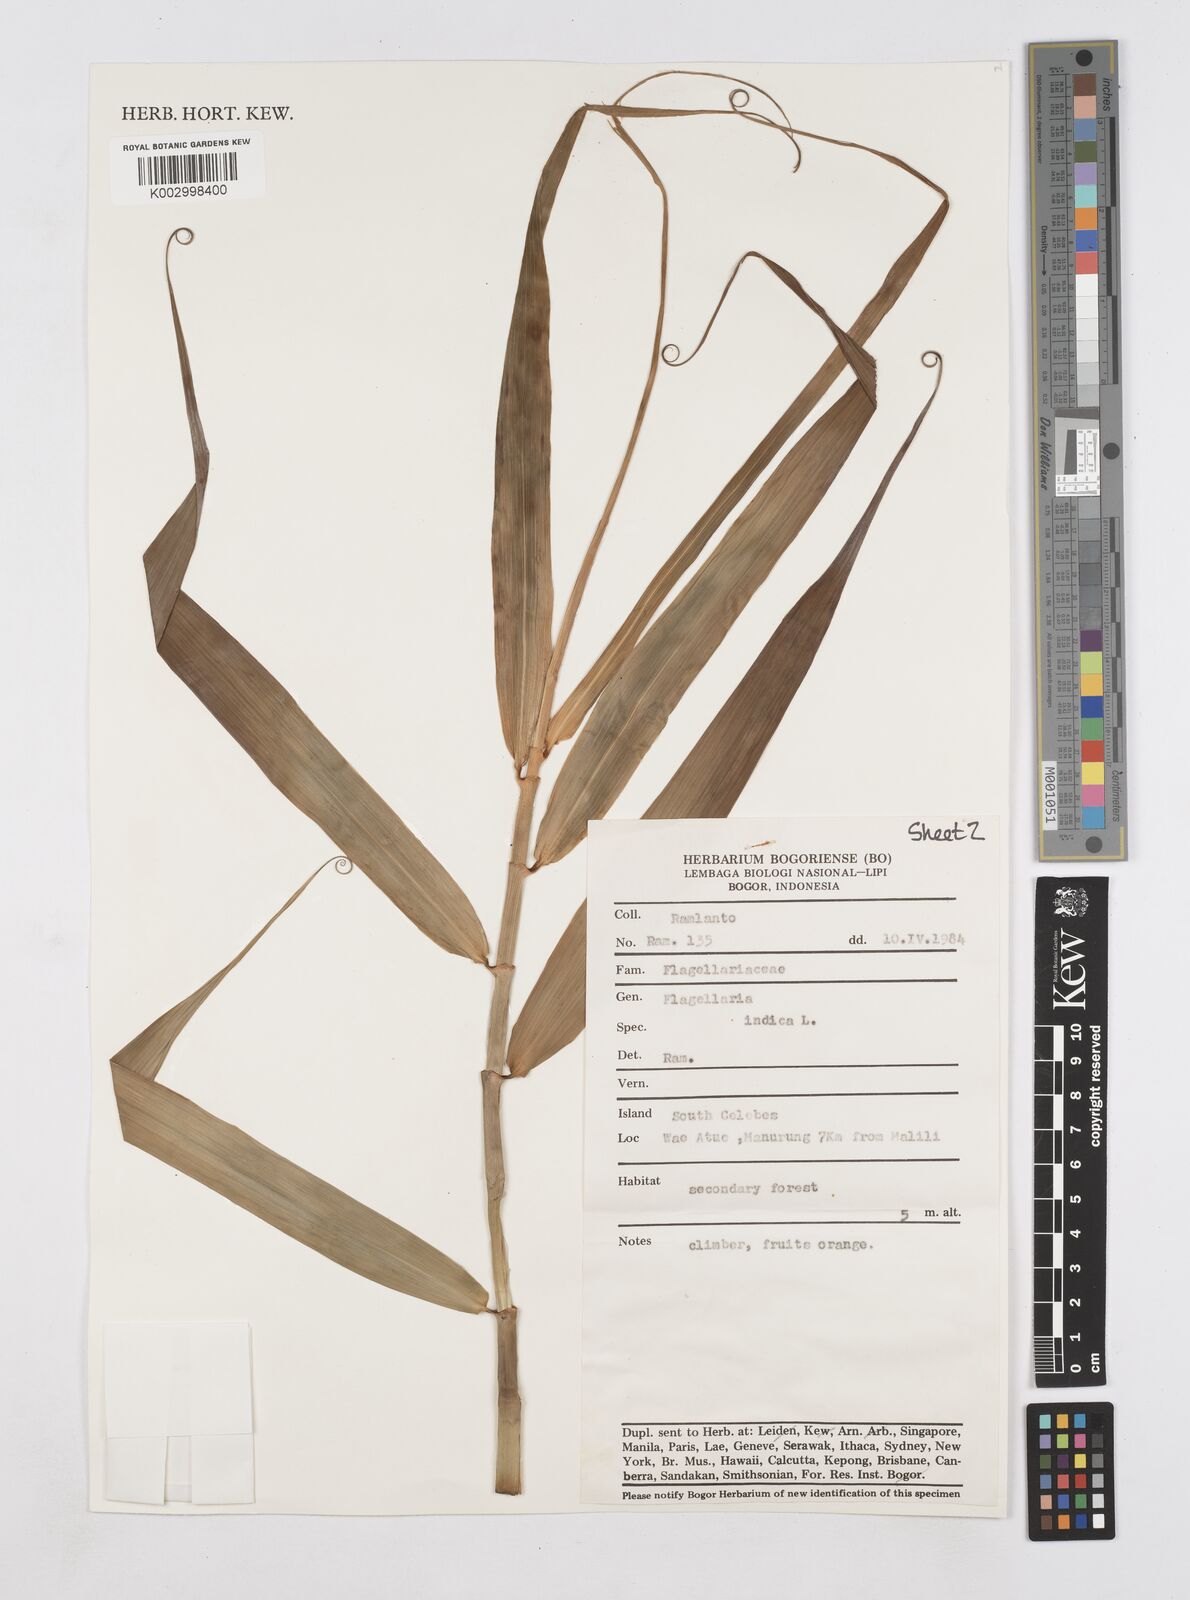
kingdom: Plantae
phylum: Tracheophyta
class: Liliopsida
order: Poales
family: Flagellariaceae
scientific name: Flagellariaceae
